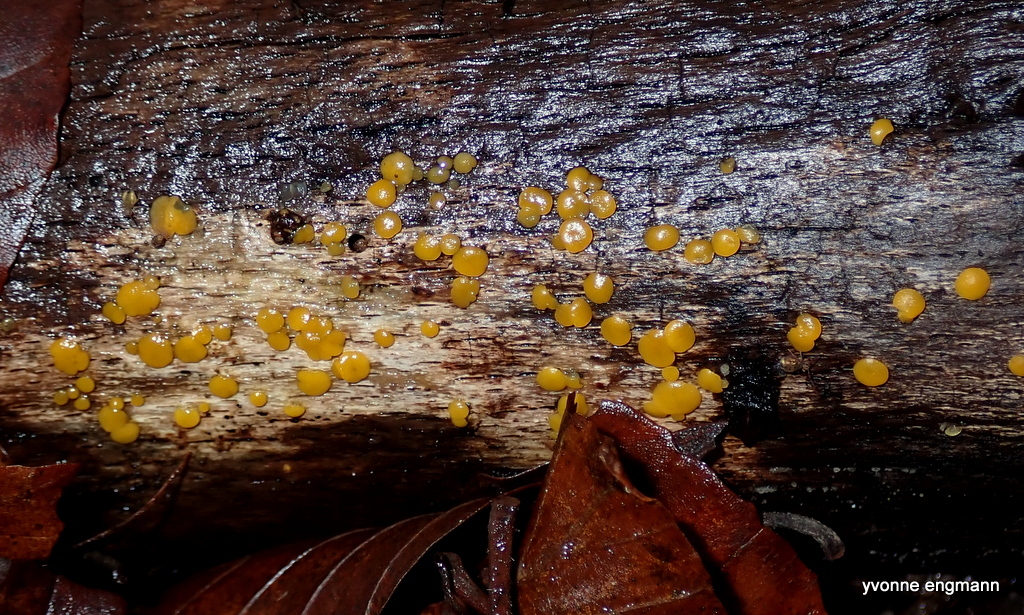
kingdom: Fungi
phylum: Ascomycota
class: Leotiomycetes
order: Helotiales
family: Pezizellaceae
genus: Calycina
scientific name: Calycina citrina
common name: almindelig gulskive
